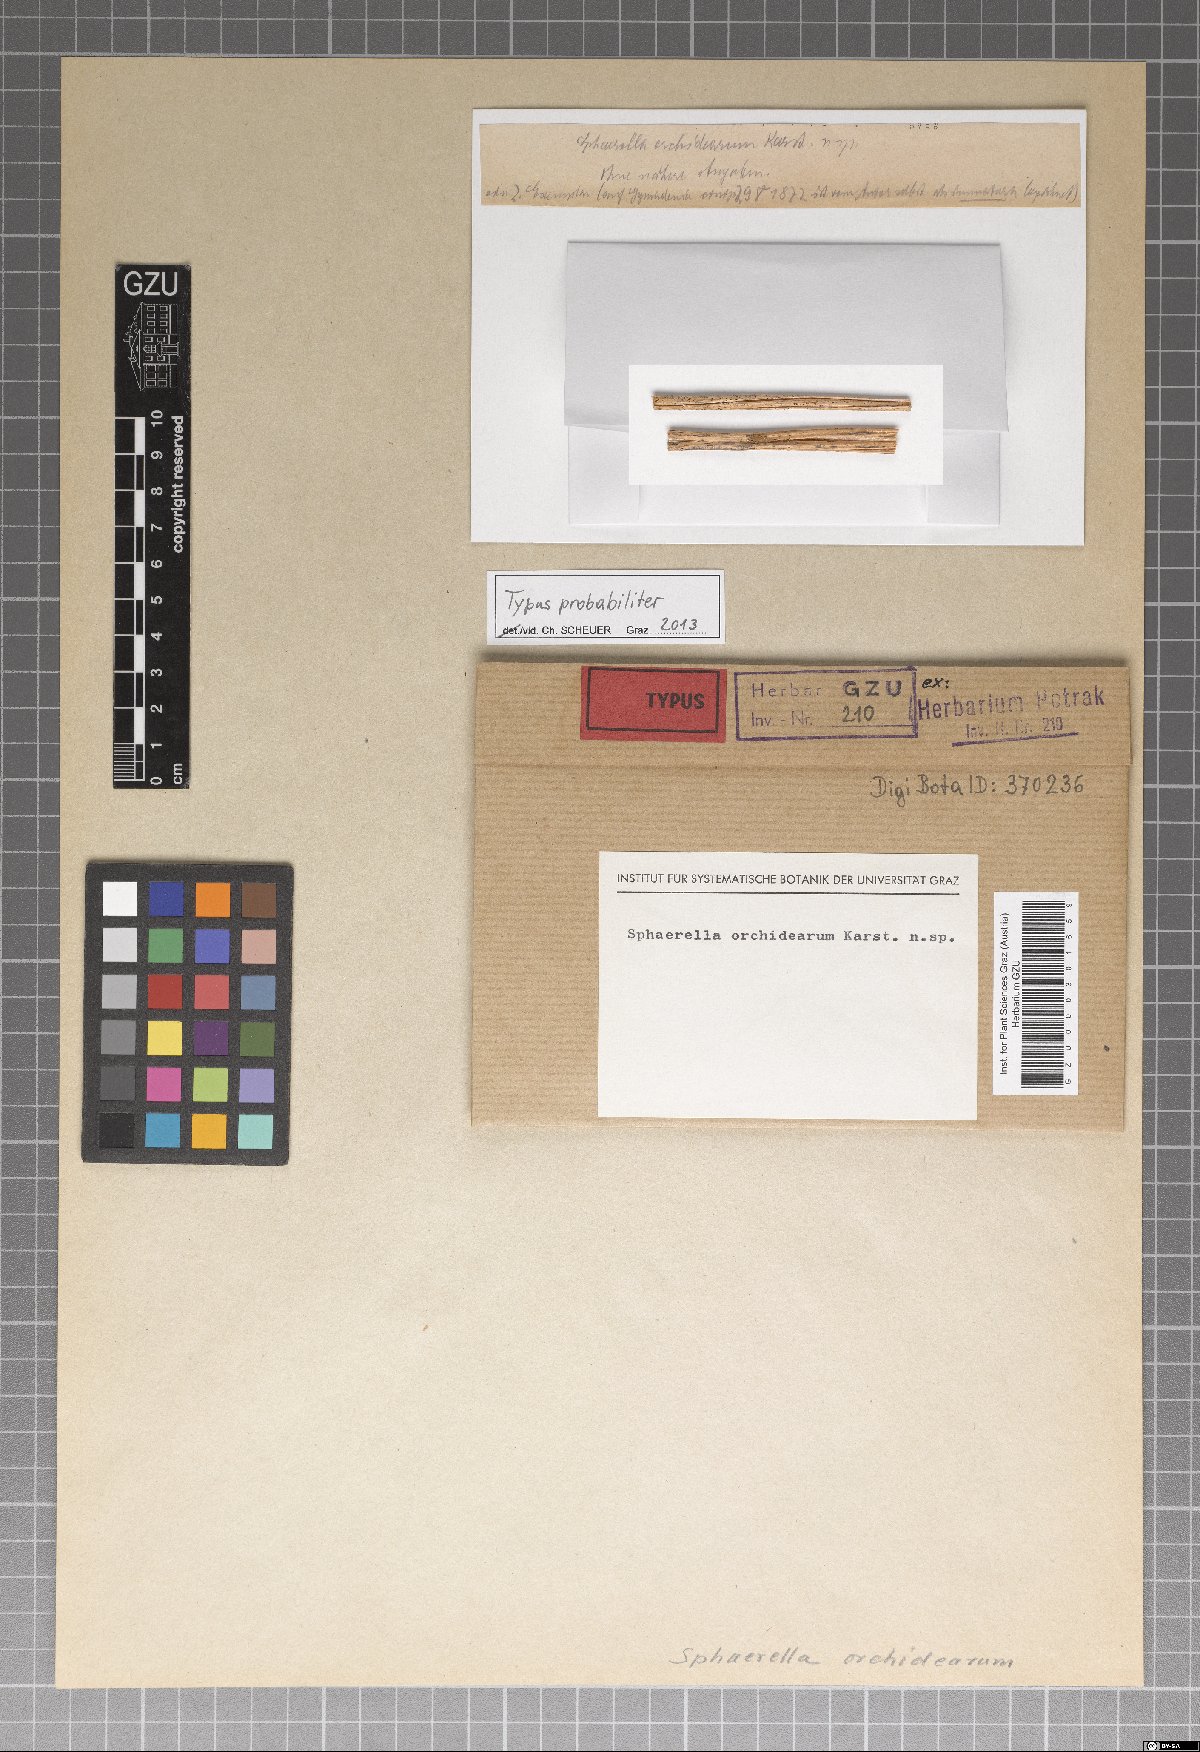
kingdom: Fungi
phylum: Ascomycota
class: Dothideomycetes
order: Mycosphaerellales
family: Mycosphaerellaceae
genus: Mycosphaerella
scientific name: Mycosphaerella orchidearum
